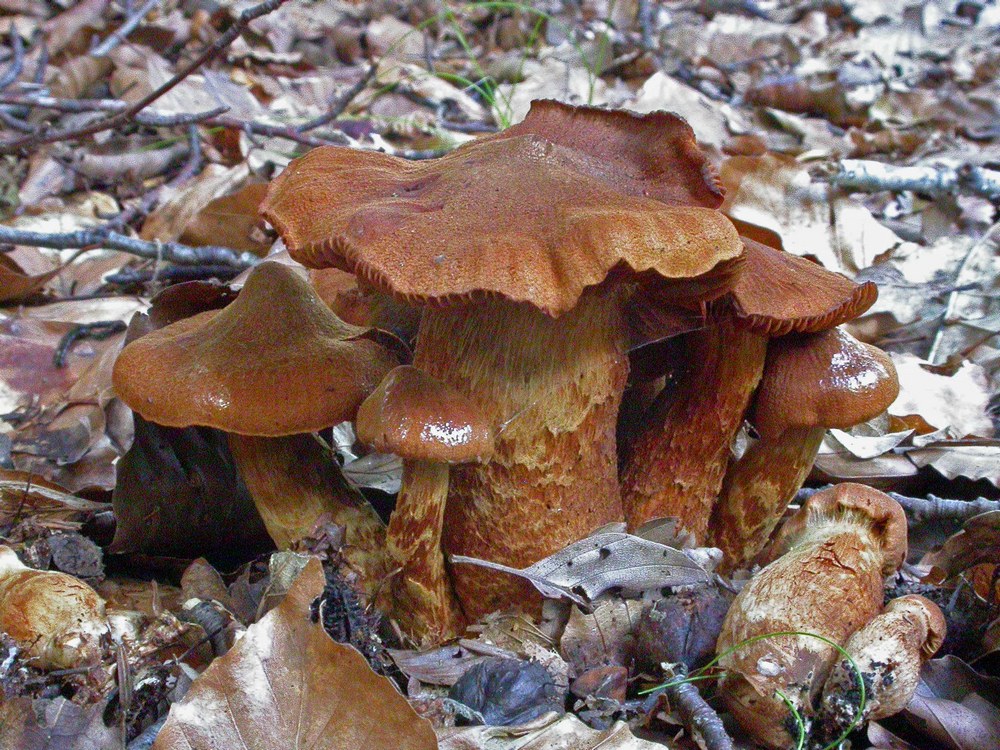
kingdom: Fungi
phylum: Basidiomycota
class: Agaricomycetes
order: Agaricales
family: Cortinariaceae
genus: Cortinarius
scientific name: Cortinarius rubellus
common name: puklet gift-slørhat
